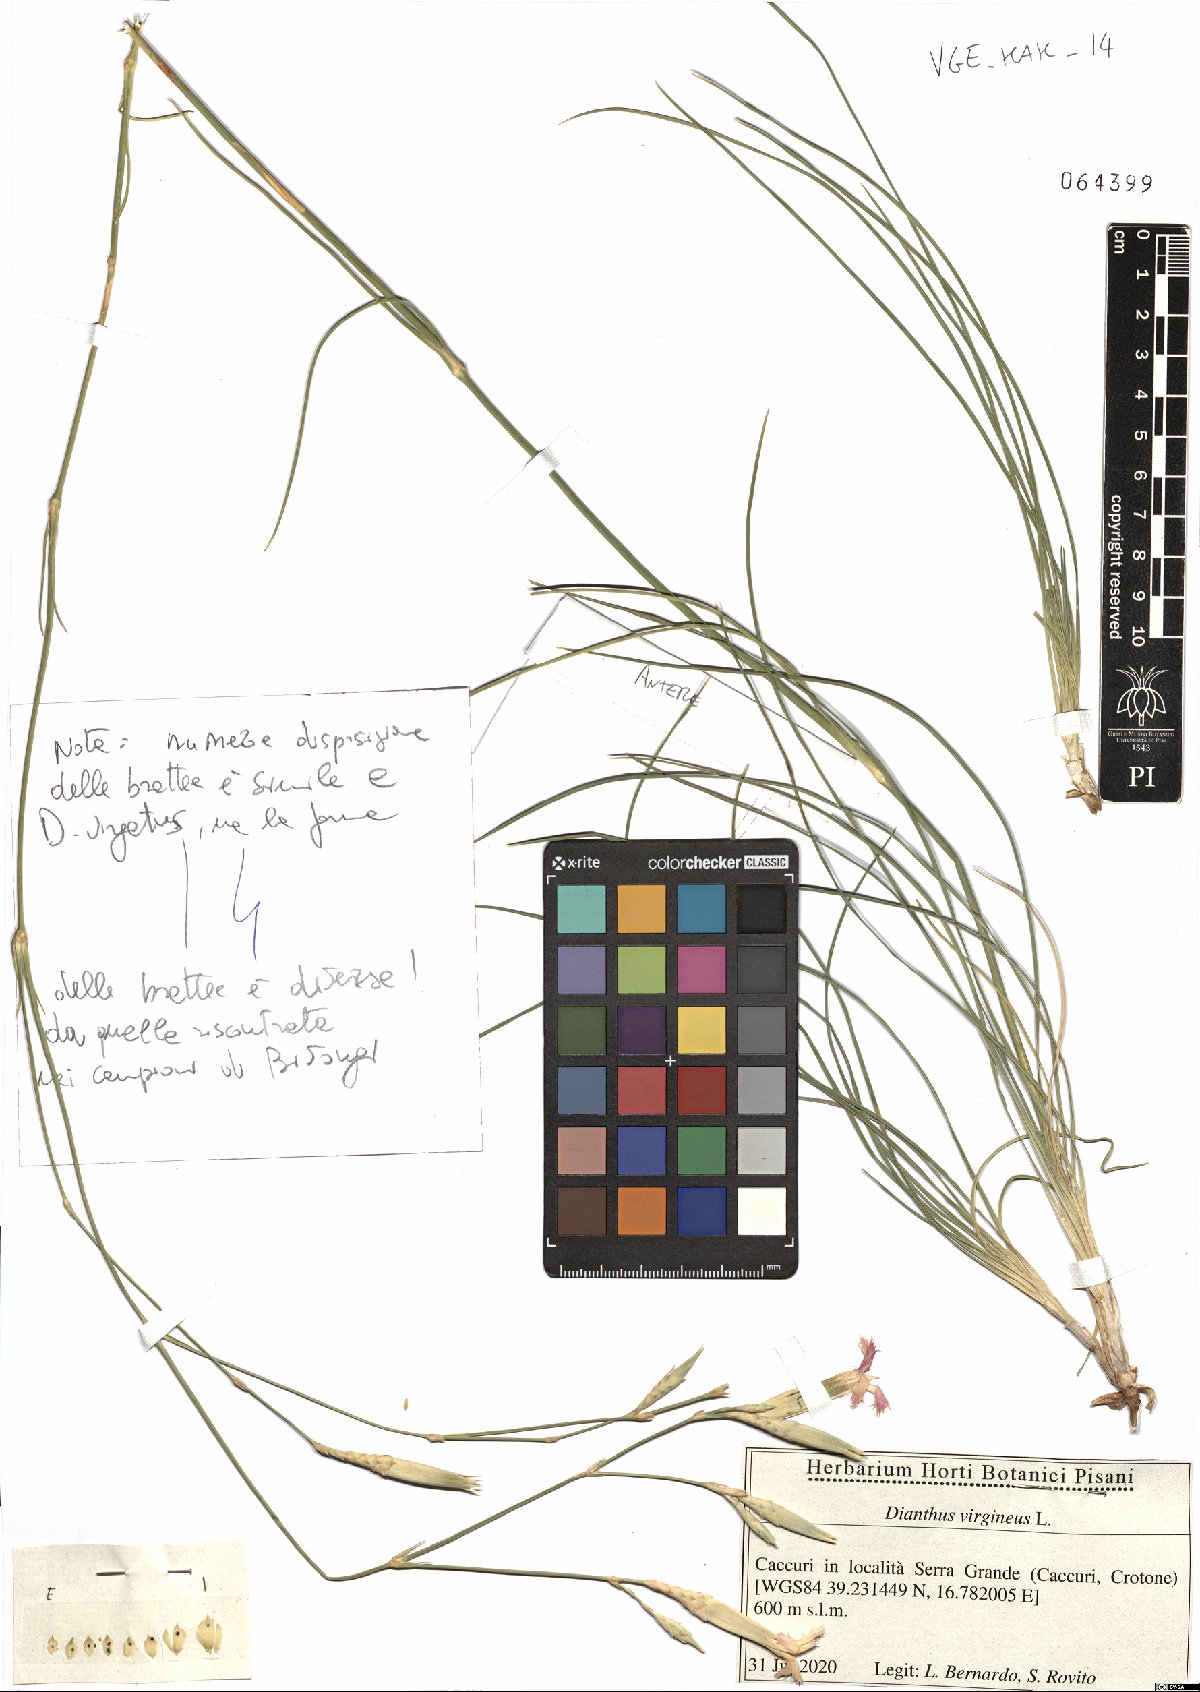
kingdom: Plantae
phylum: Tracheophyta
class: Magnoliopsida
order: Caryophyllales
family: Caryophyllaceae
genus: Dianthus
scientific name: Dianthus virgineus
